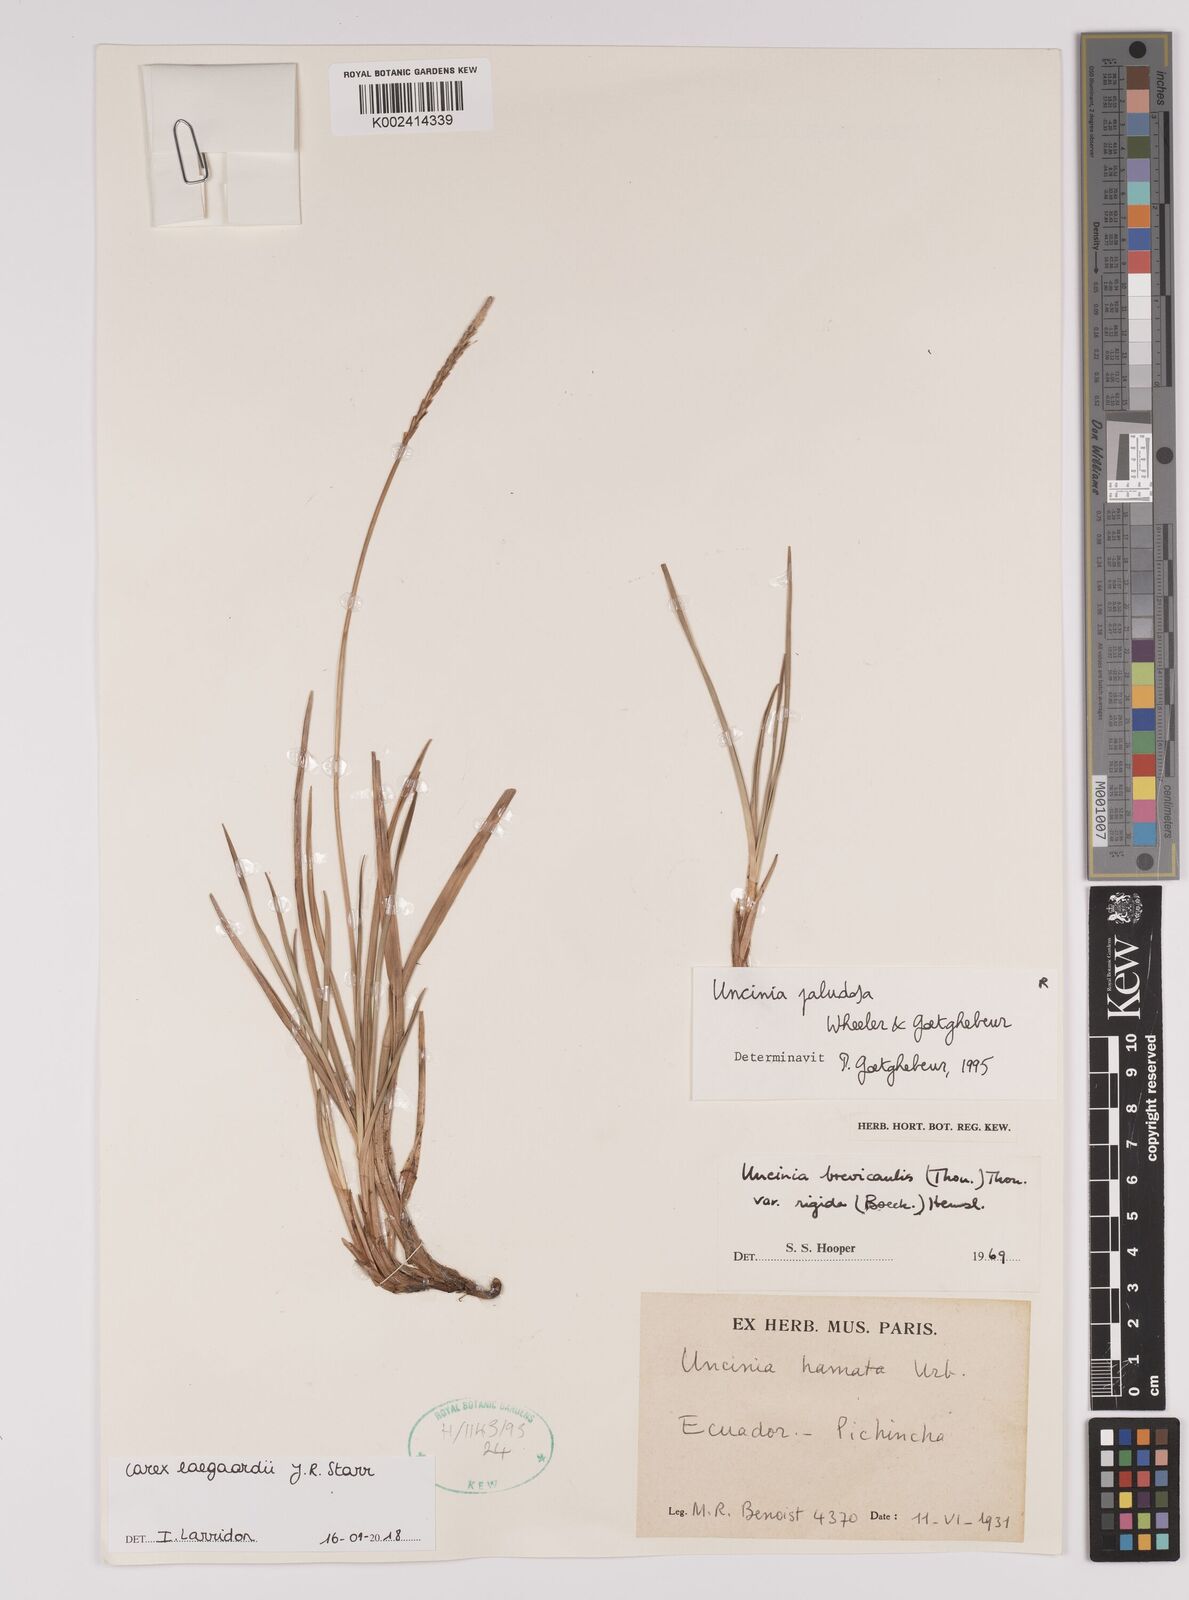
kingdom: Plantae
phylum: Tracheophyta
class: Liliopsida
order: Poales
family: Cyperaceae
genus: Carex
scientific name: Carex laegaardii
